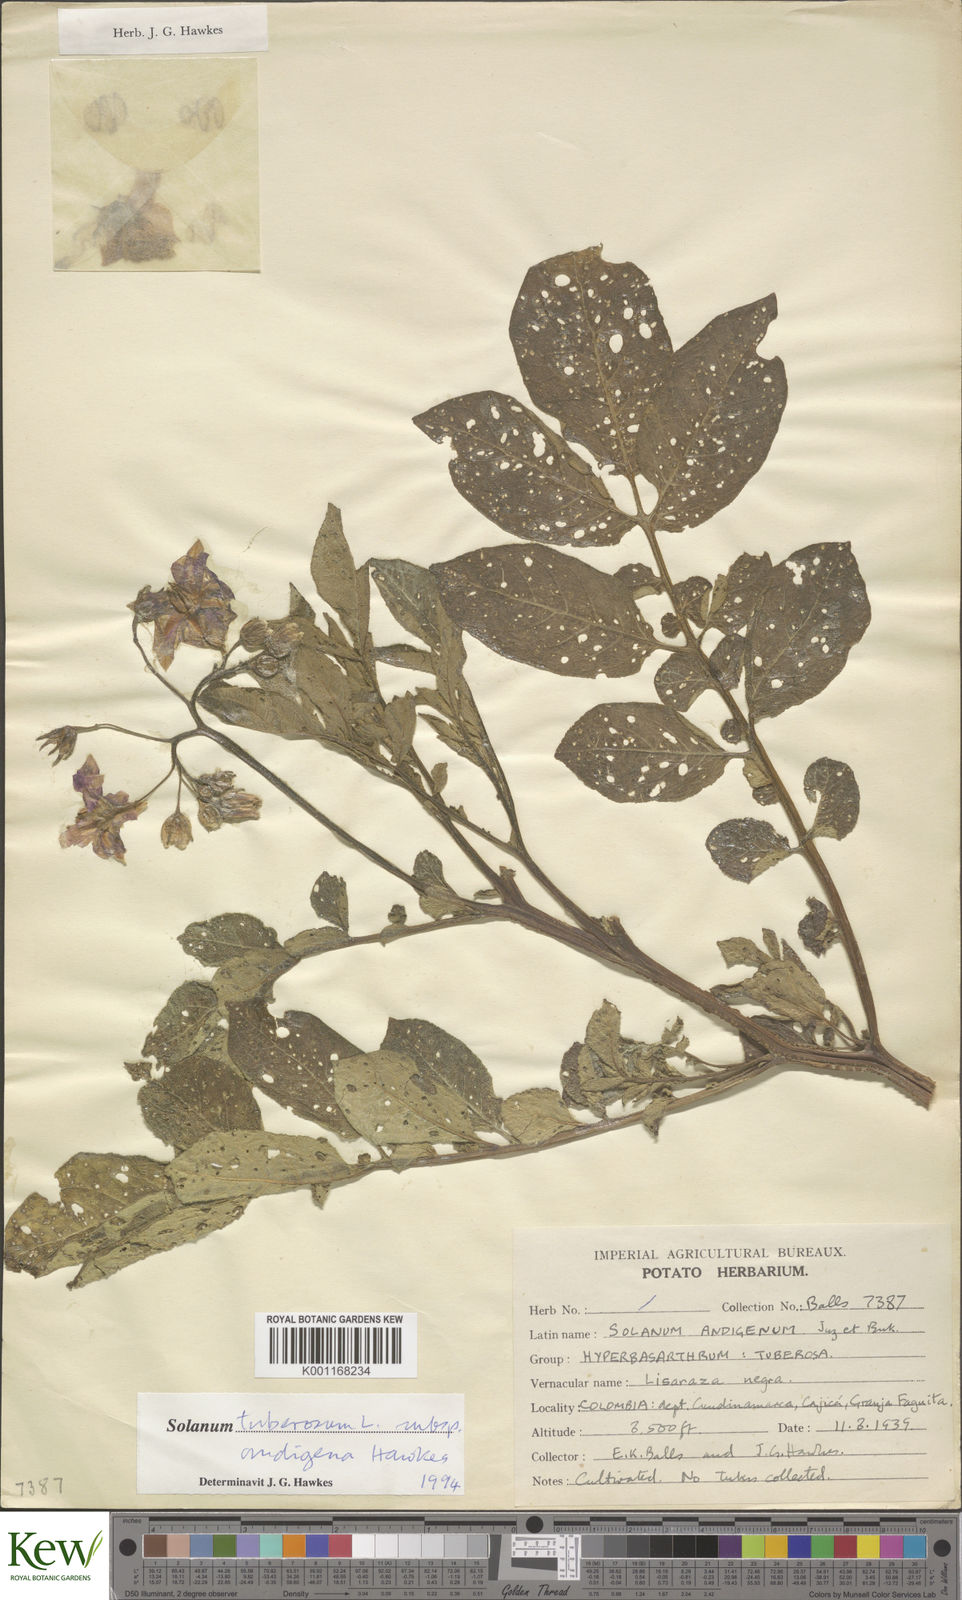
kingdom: Plantae
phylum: Tracheophyta
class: Magnoliopsida
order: Solanales
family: Solanaceae
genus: Solanum
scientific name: Solanum tuberosum
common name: Potato
